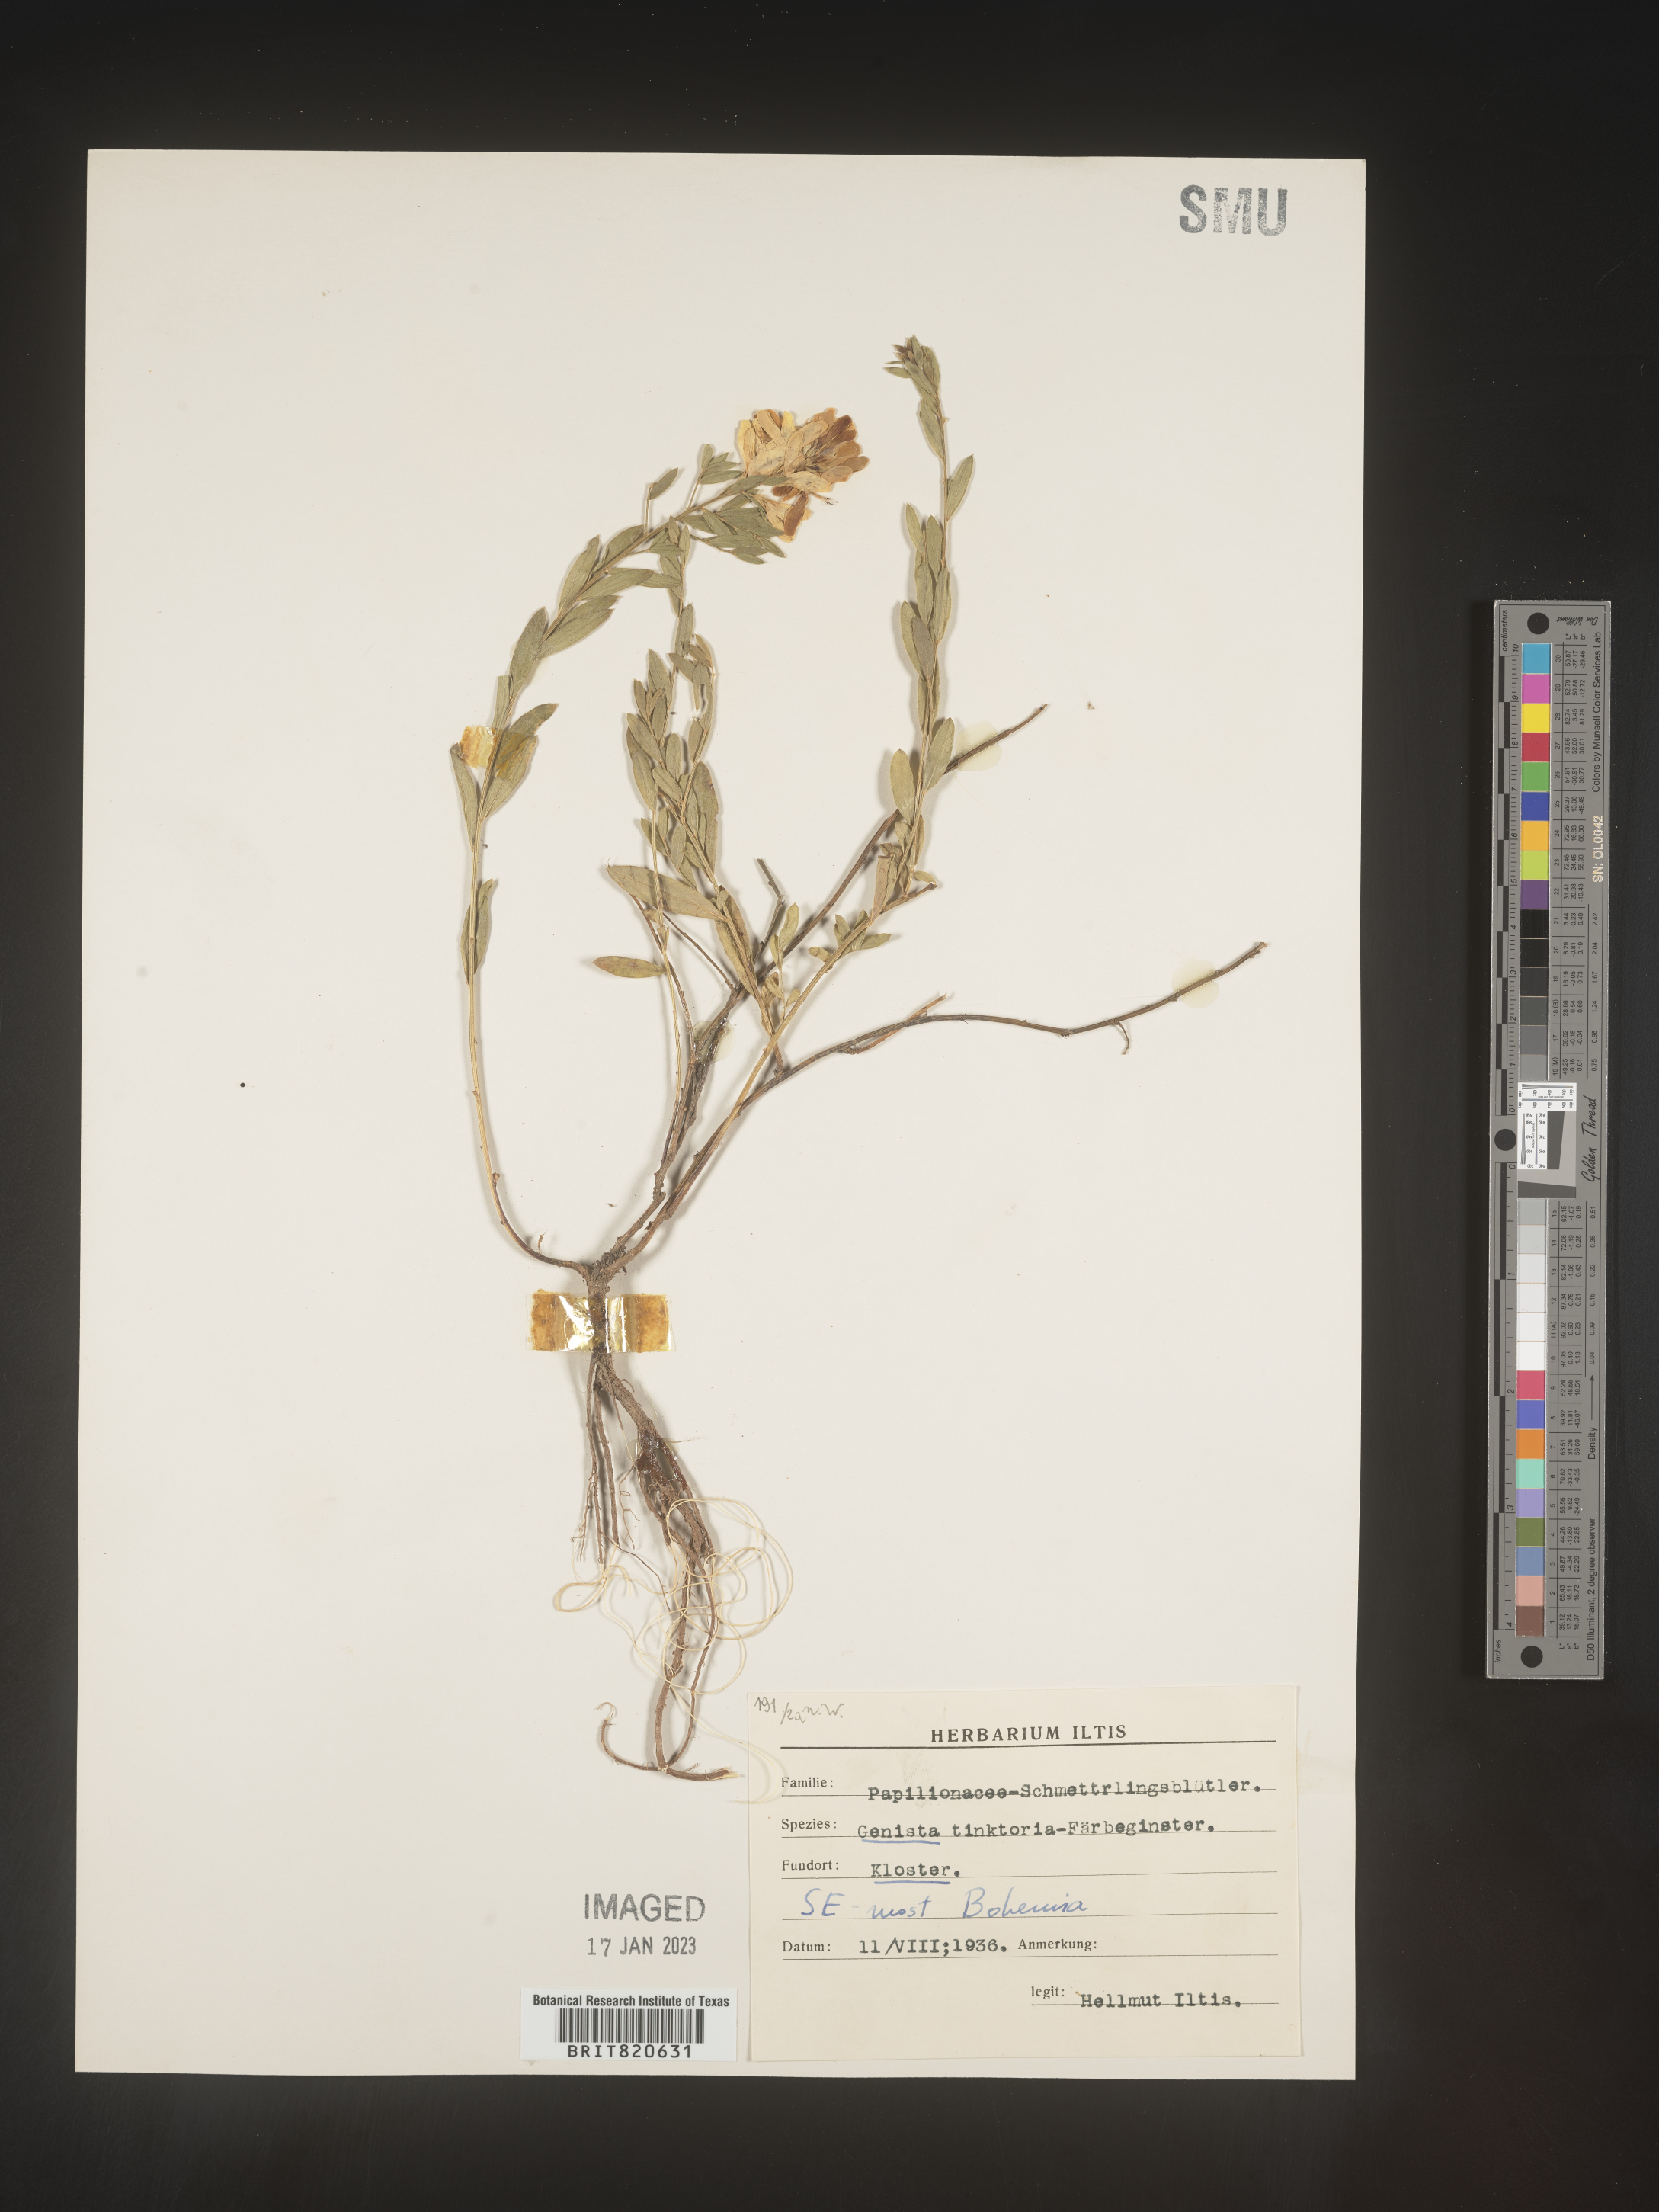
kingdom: Plantae
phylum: Tracheophyta
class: Magnoliopsida
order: Fabales
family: Fabaceae
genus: Genista
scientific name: Genista tinctoria
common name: Dyer's greenweed
